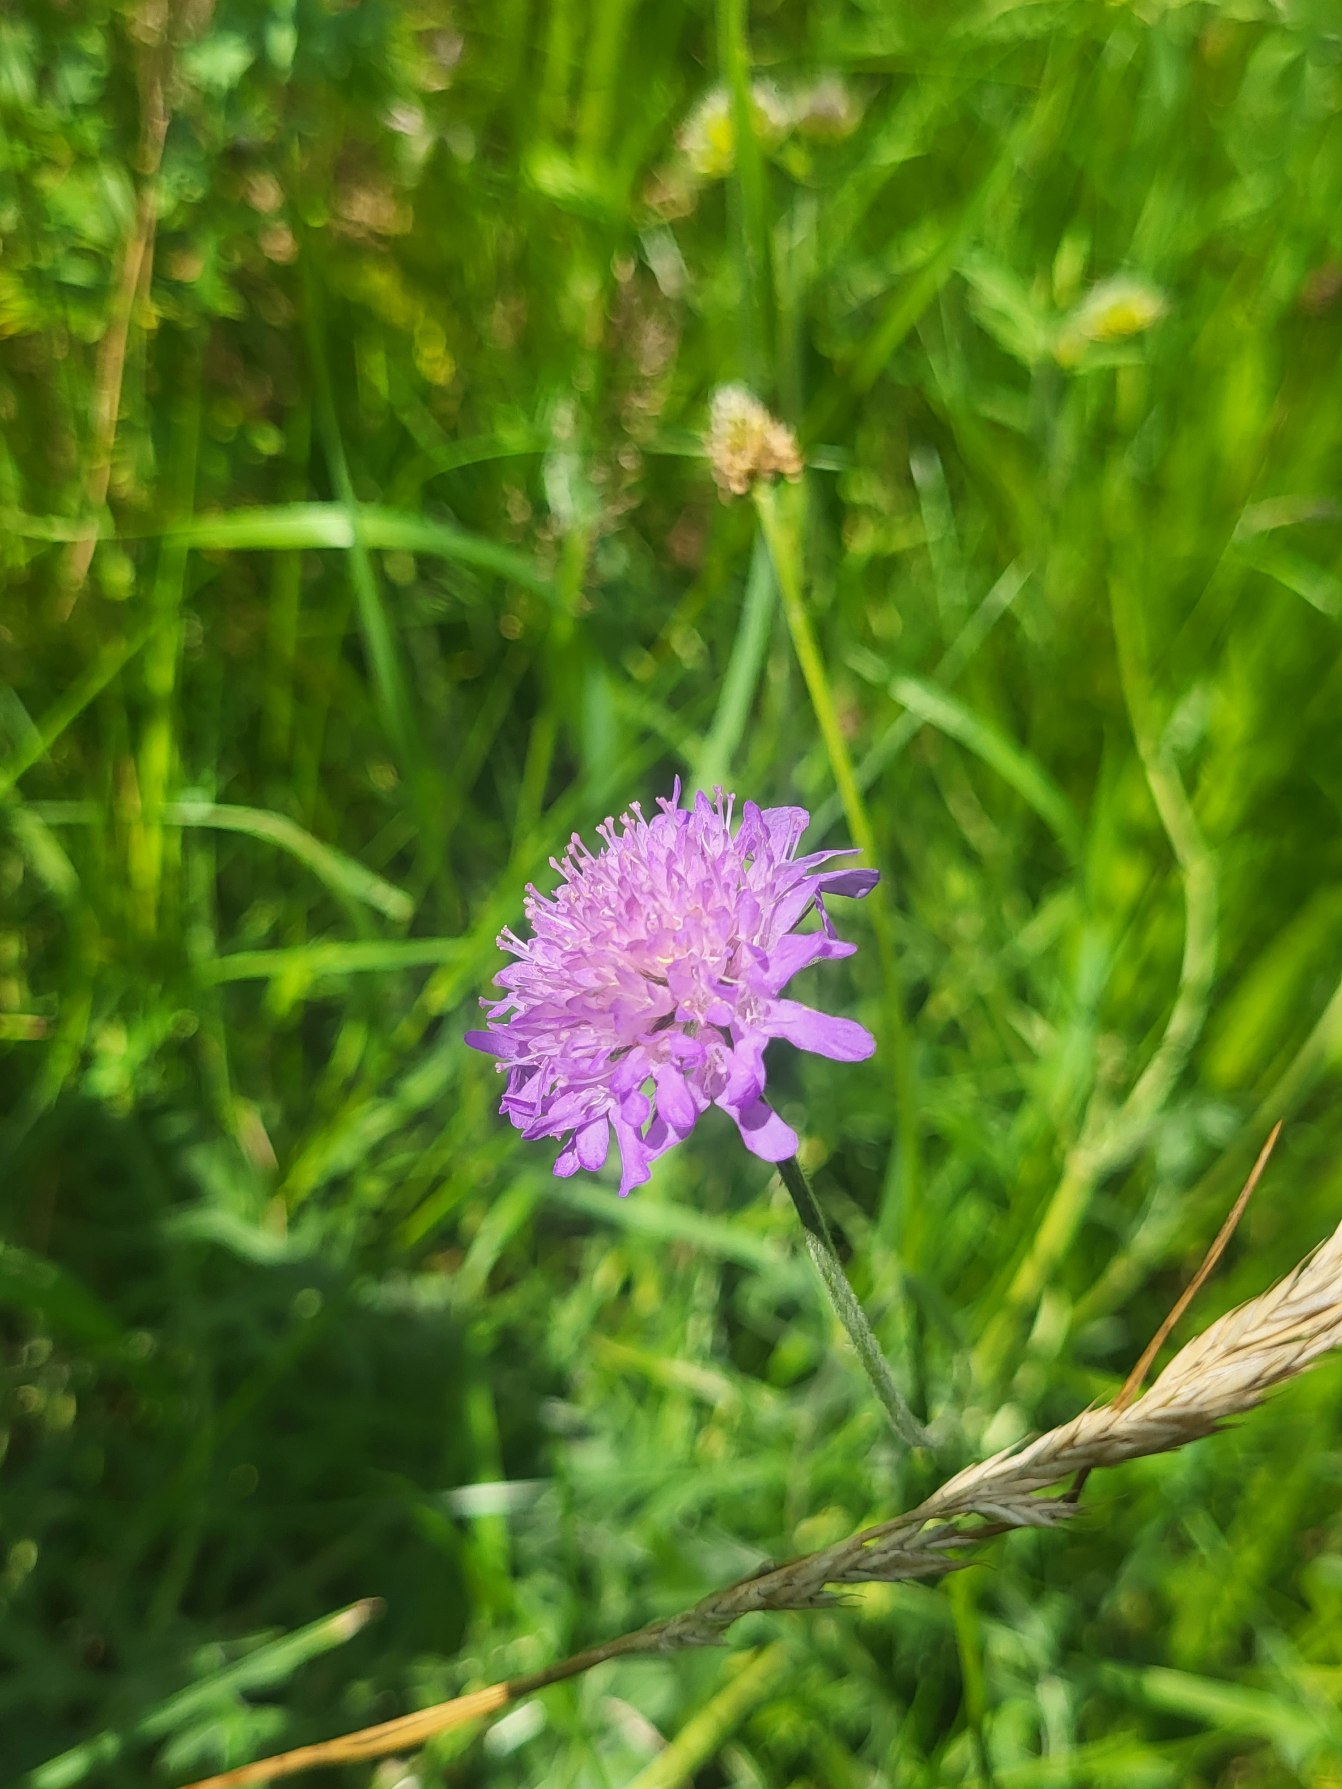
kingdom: Plantae
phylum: Tracheophyta
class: Magnoliopsida
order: Dipsacales
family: Caprifoliaceae
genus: Knautia
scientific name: Knautia arvensis
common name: Blåhat
